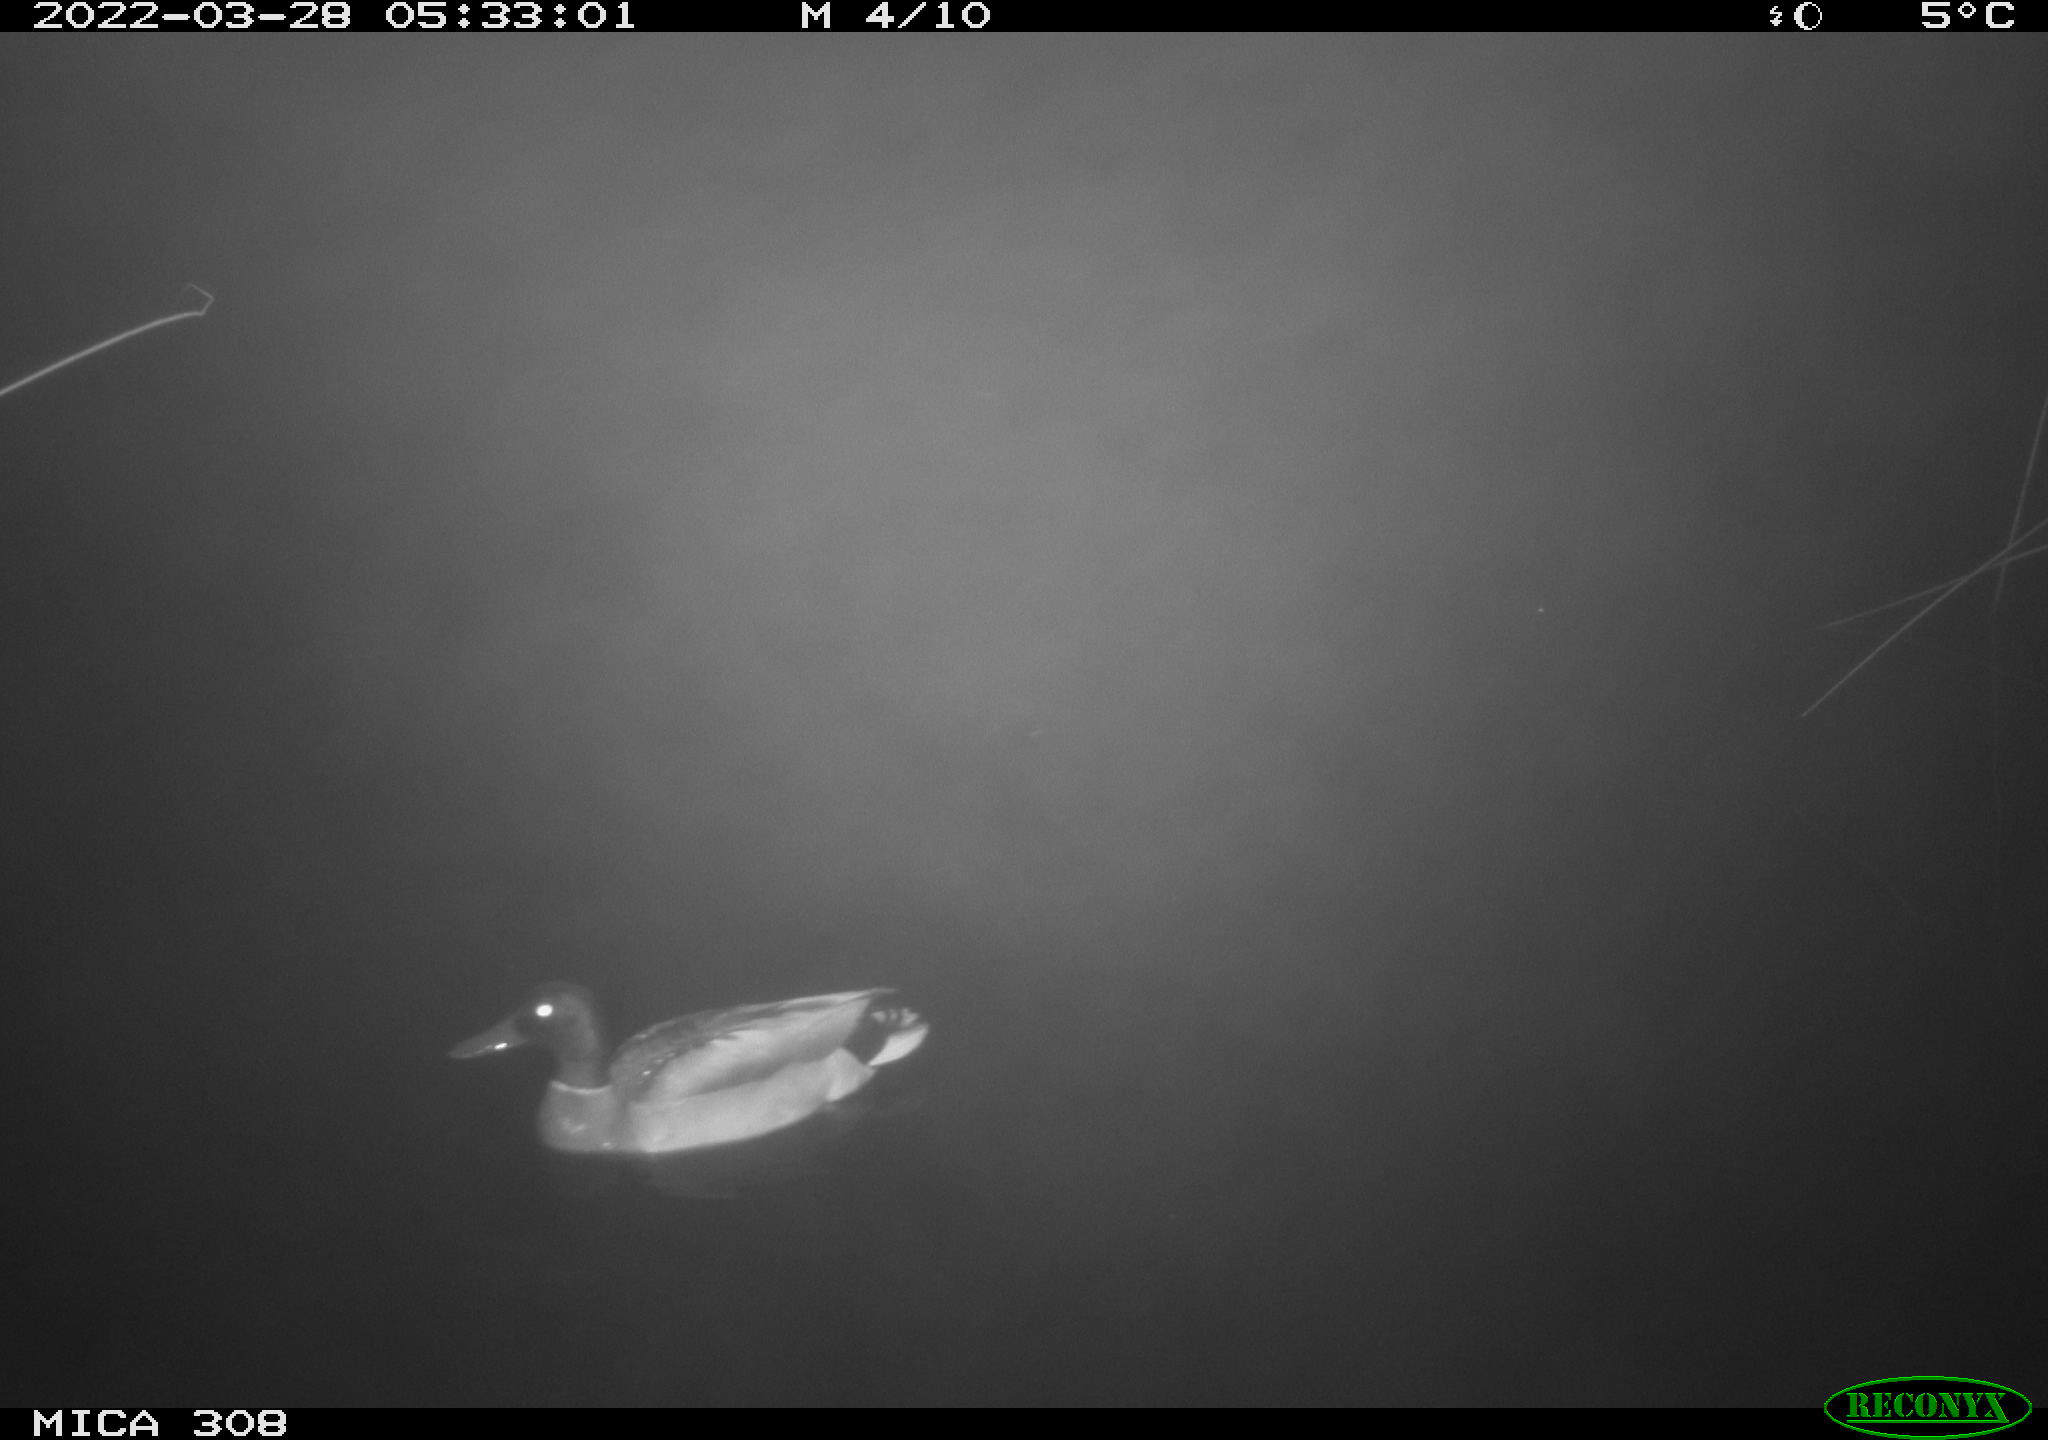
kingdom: Animalia
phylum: Chordata
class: Aves
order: Anseriformes
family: Anatidae
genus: Anas
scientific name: Anas platyrhynchos
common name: Mallard
